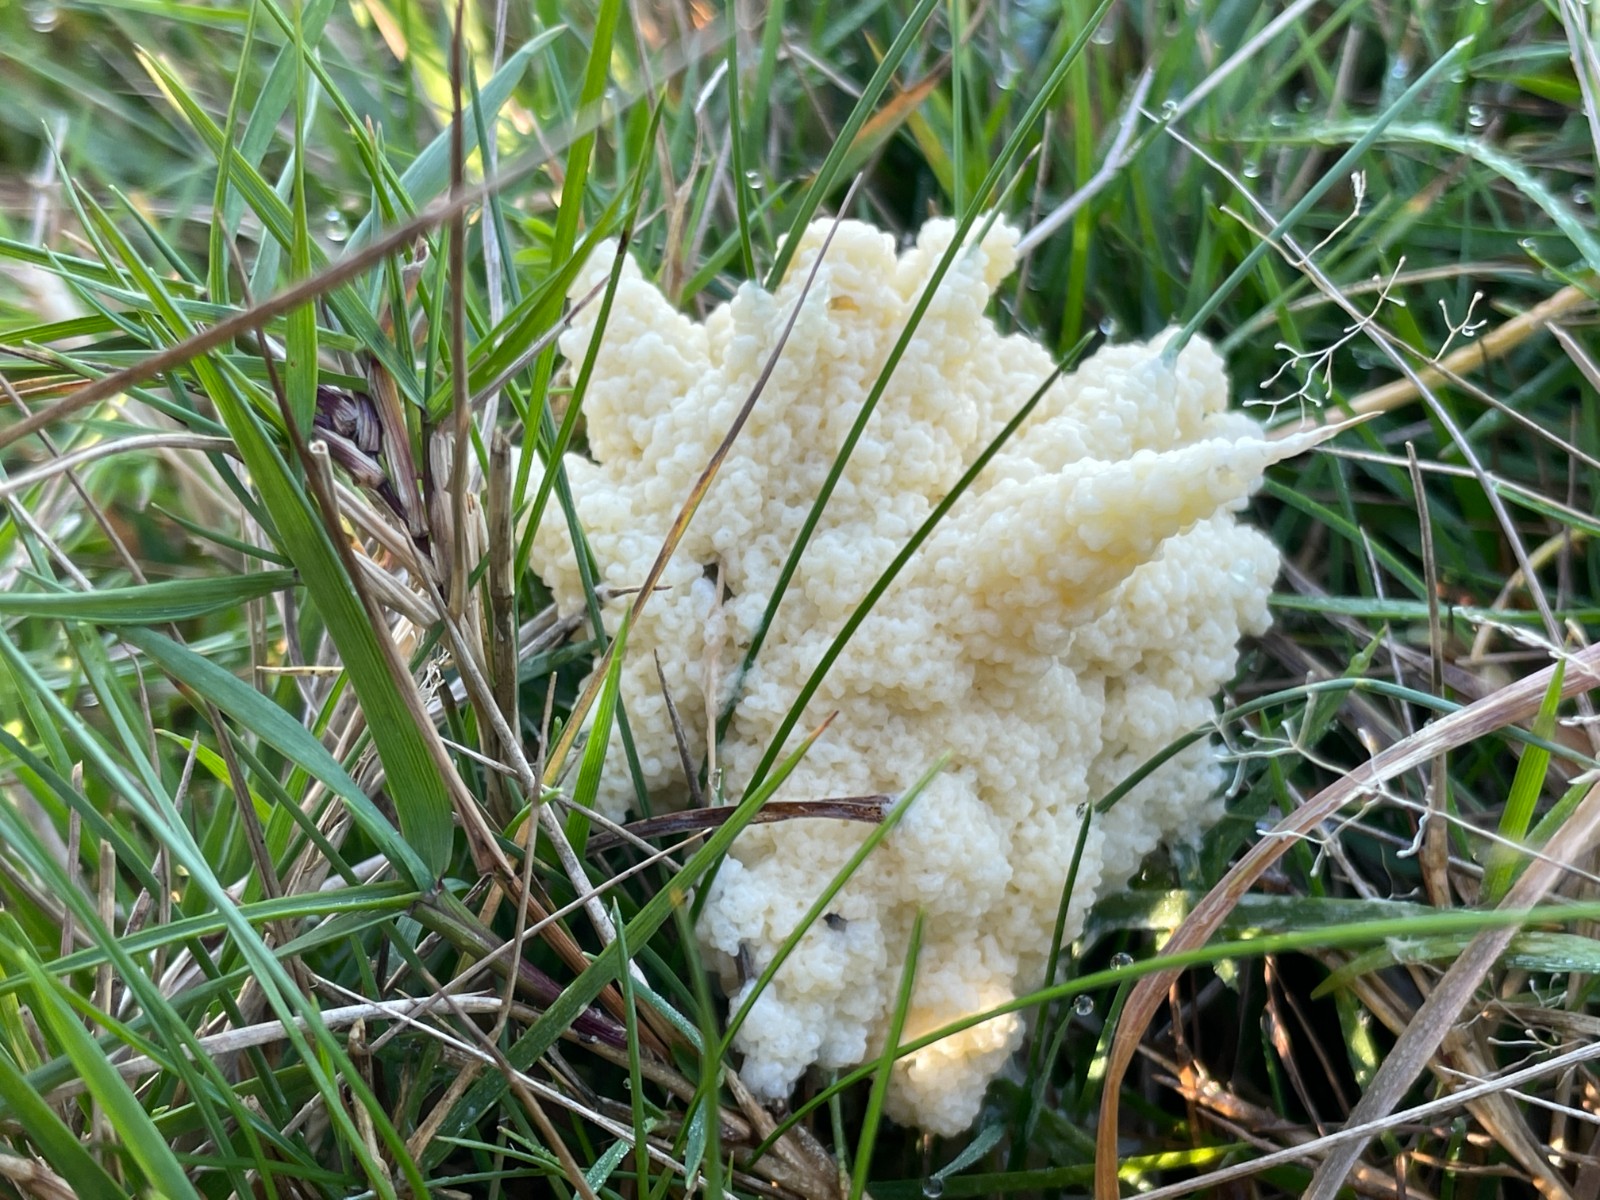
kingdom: Protozoa
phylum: Mycetozoa
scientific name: Mycetozoa
